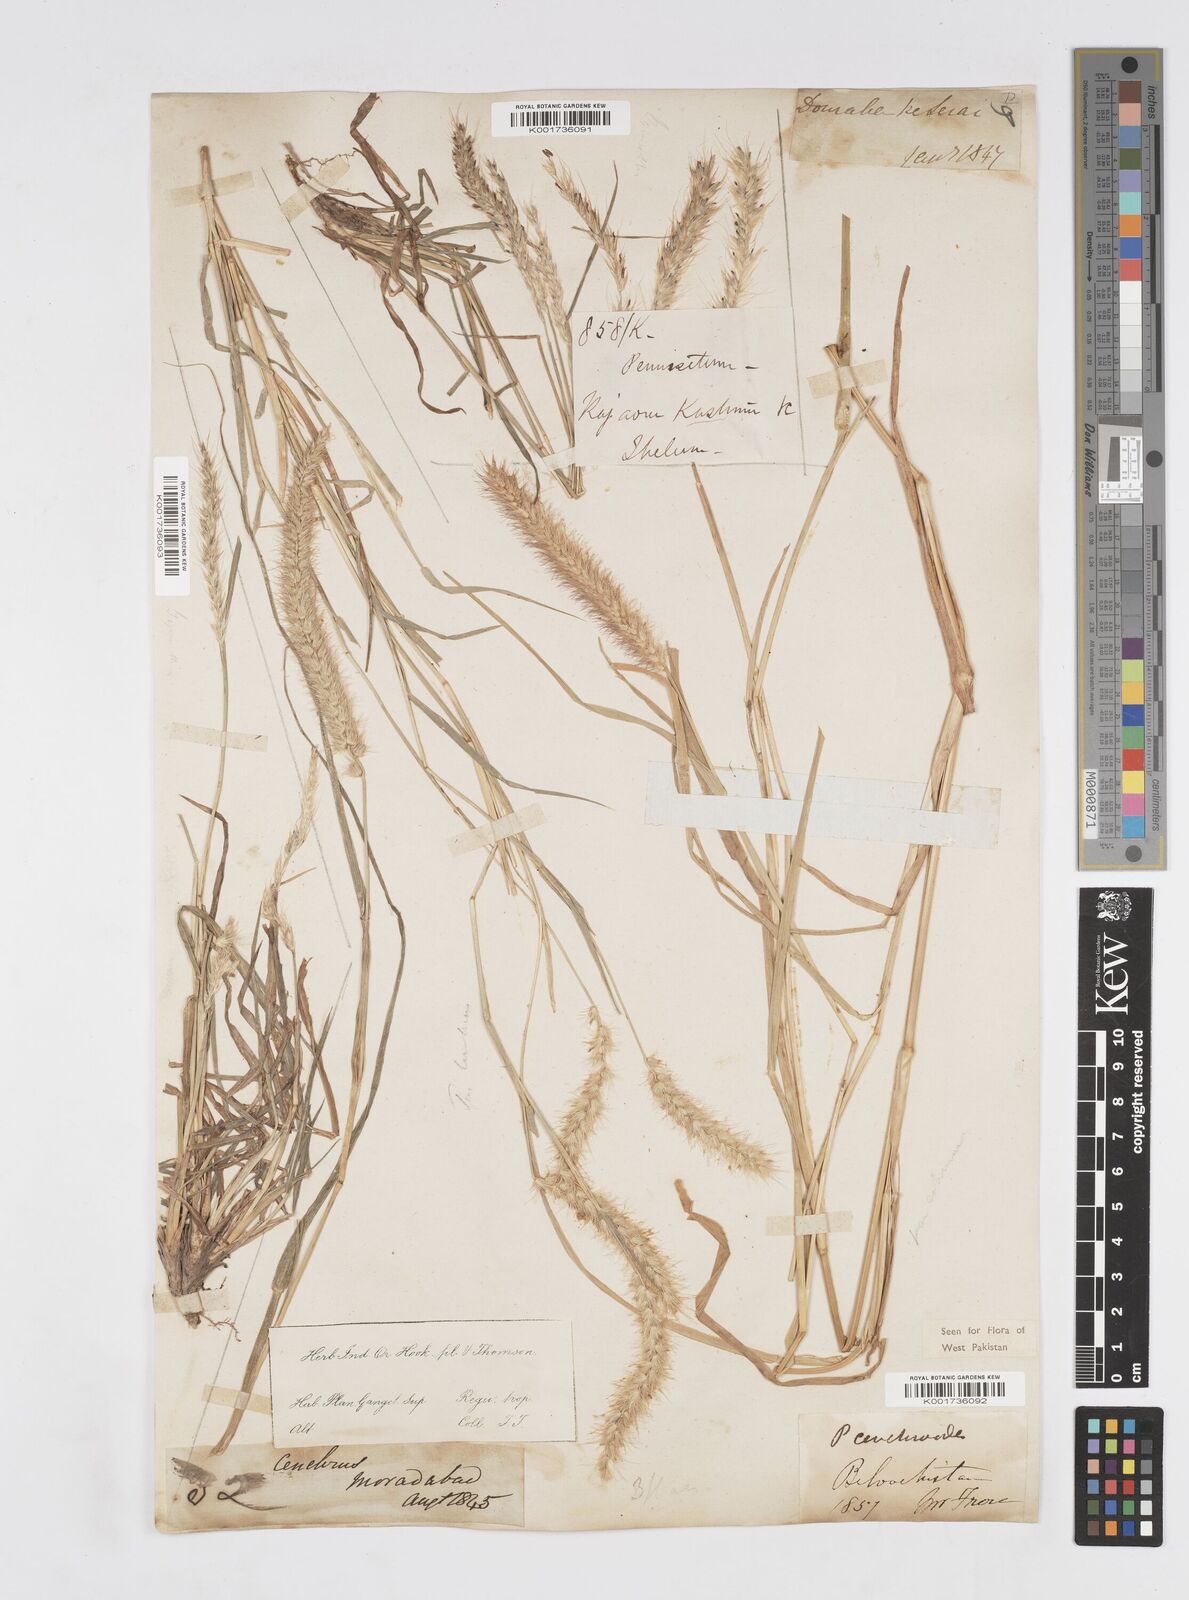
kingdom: Plantae
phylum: Tracheophyta
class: Liliopsida
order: Poales
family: Poaceae
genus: Cenchrus
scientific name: Cenchrus ciliaris
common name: Buffelgrass
